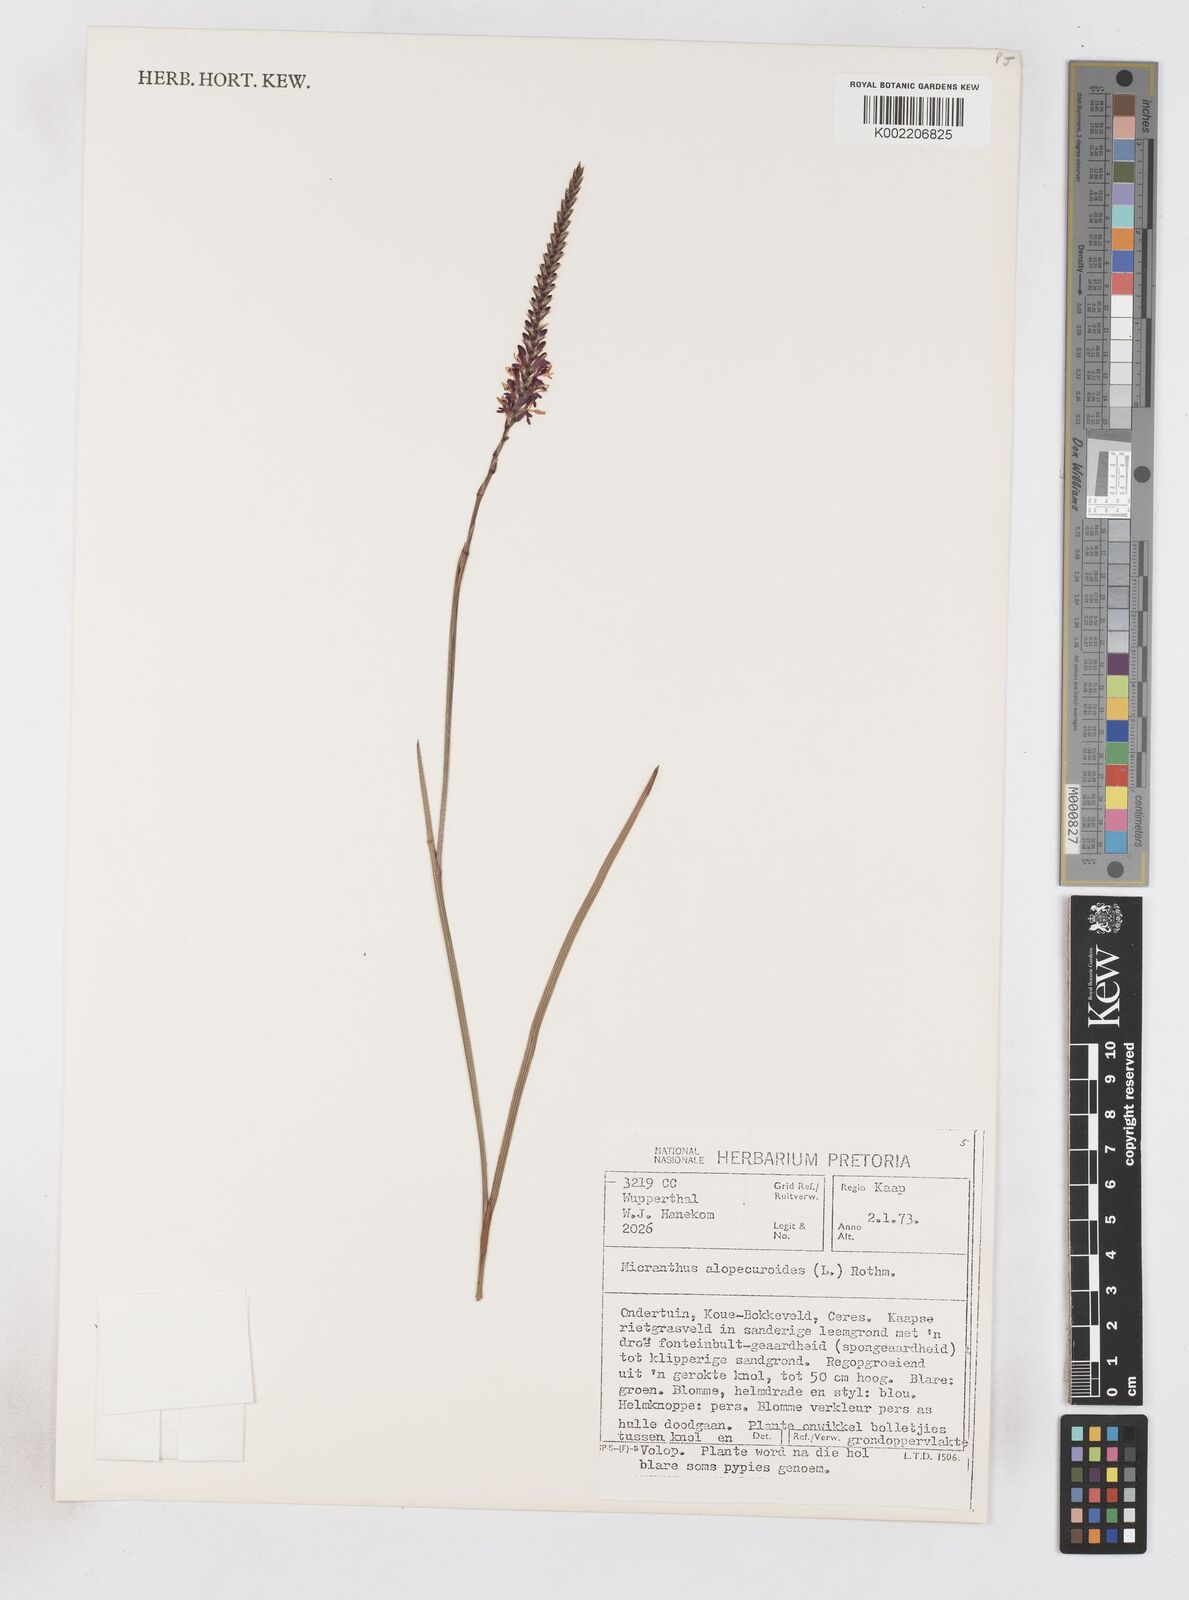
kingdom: Plantae
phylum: Tracheophyta
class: Liliopsida
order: Asparagales
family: Iridaceae
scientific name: Iridaceae
